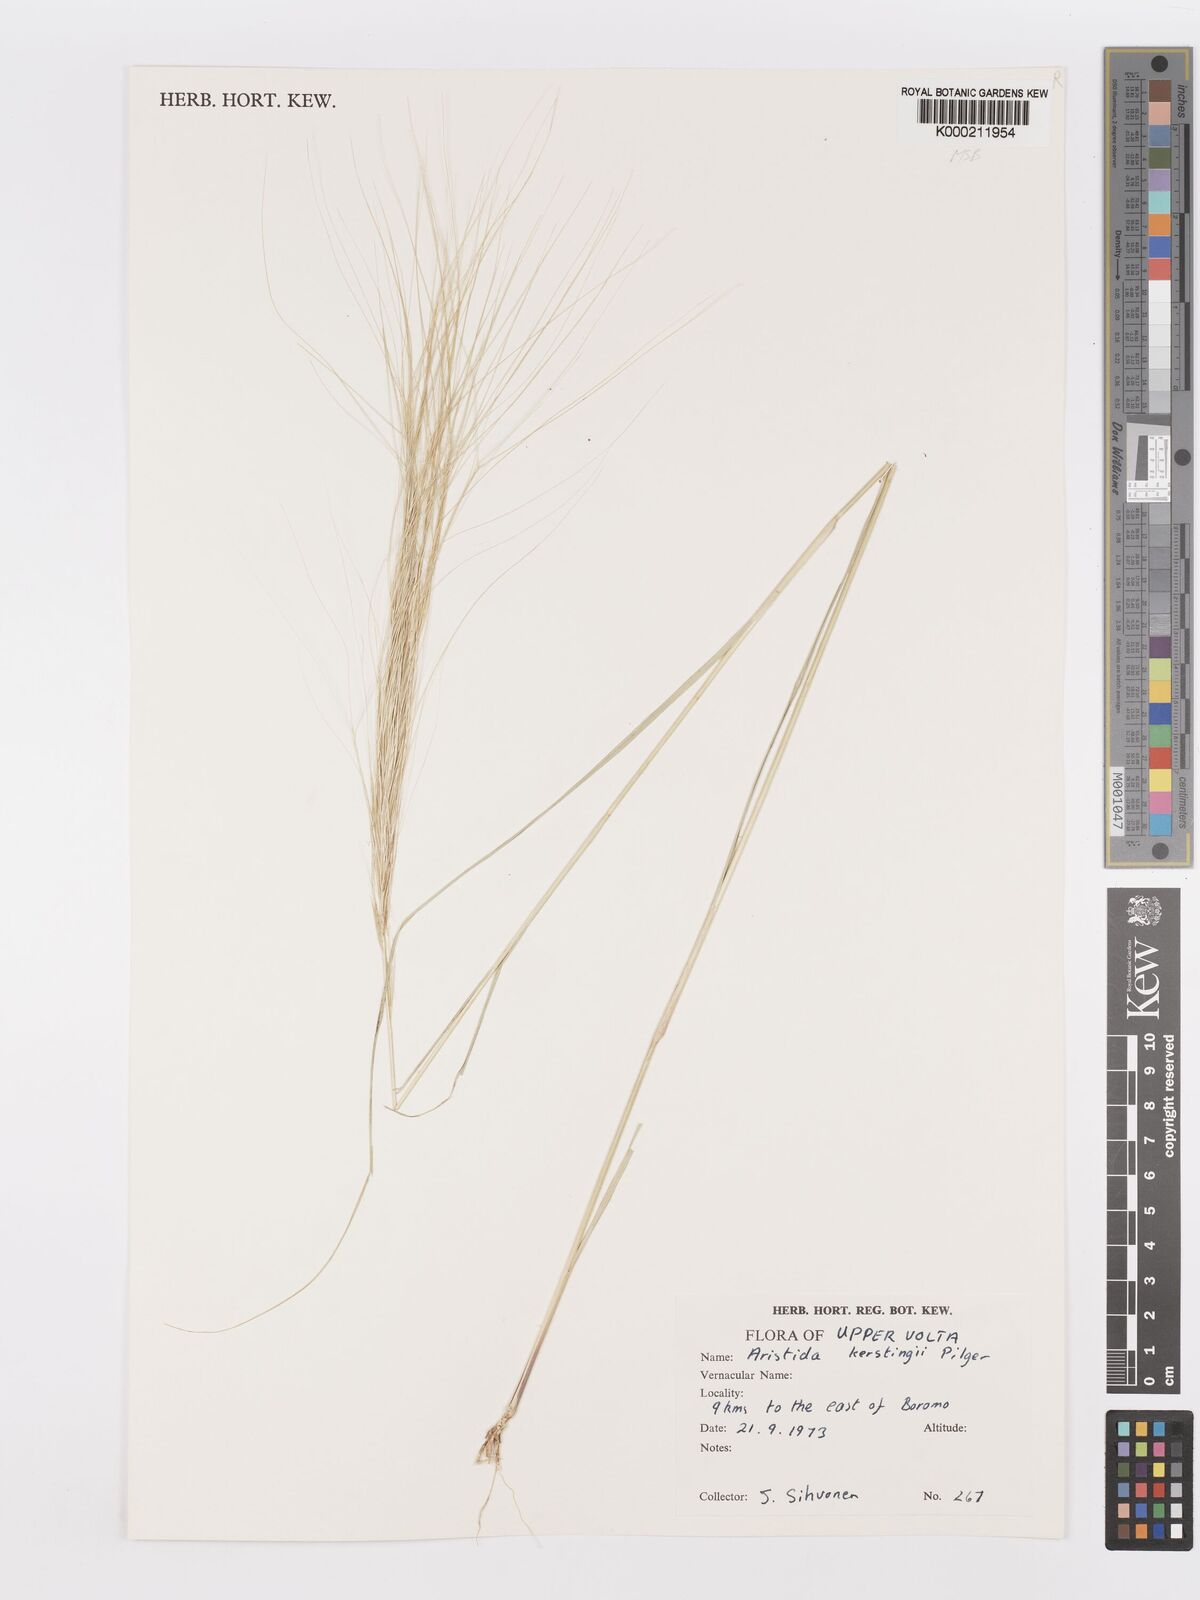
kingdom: Plantae
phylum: Tracheophyta
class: Liliopsida
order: Poales
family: Poaceae
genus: Aristida
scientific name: Aristida kerstingii
